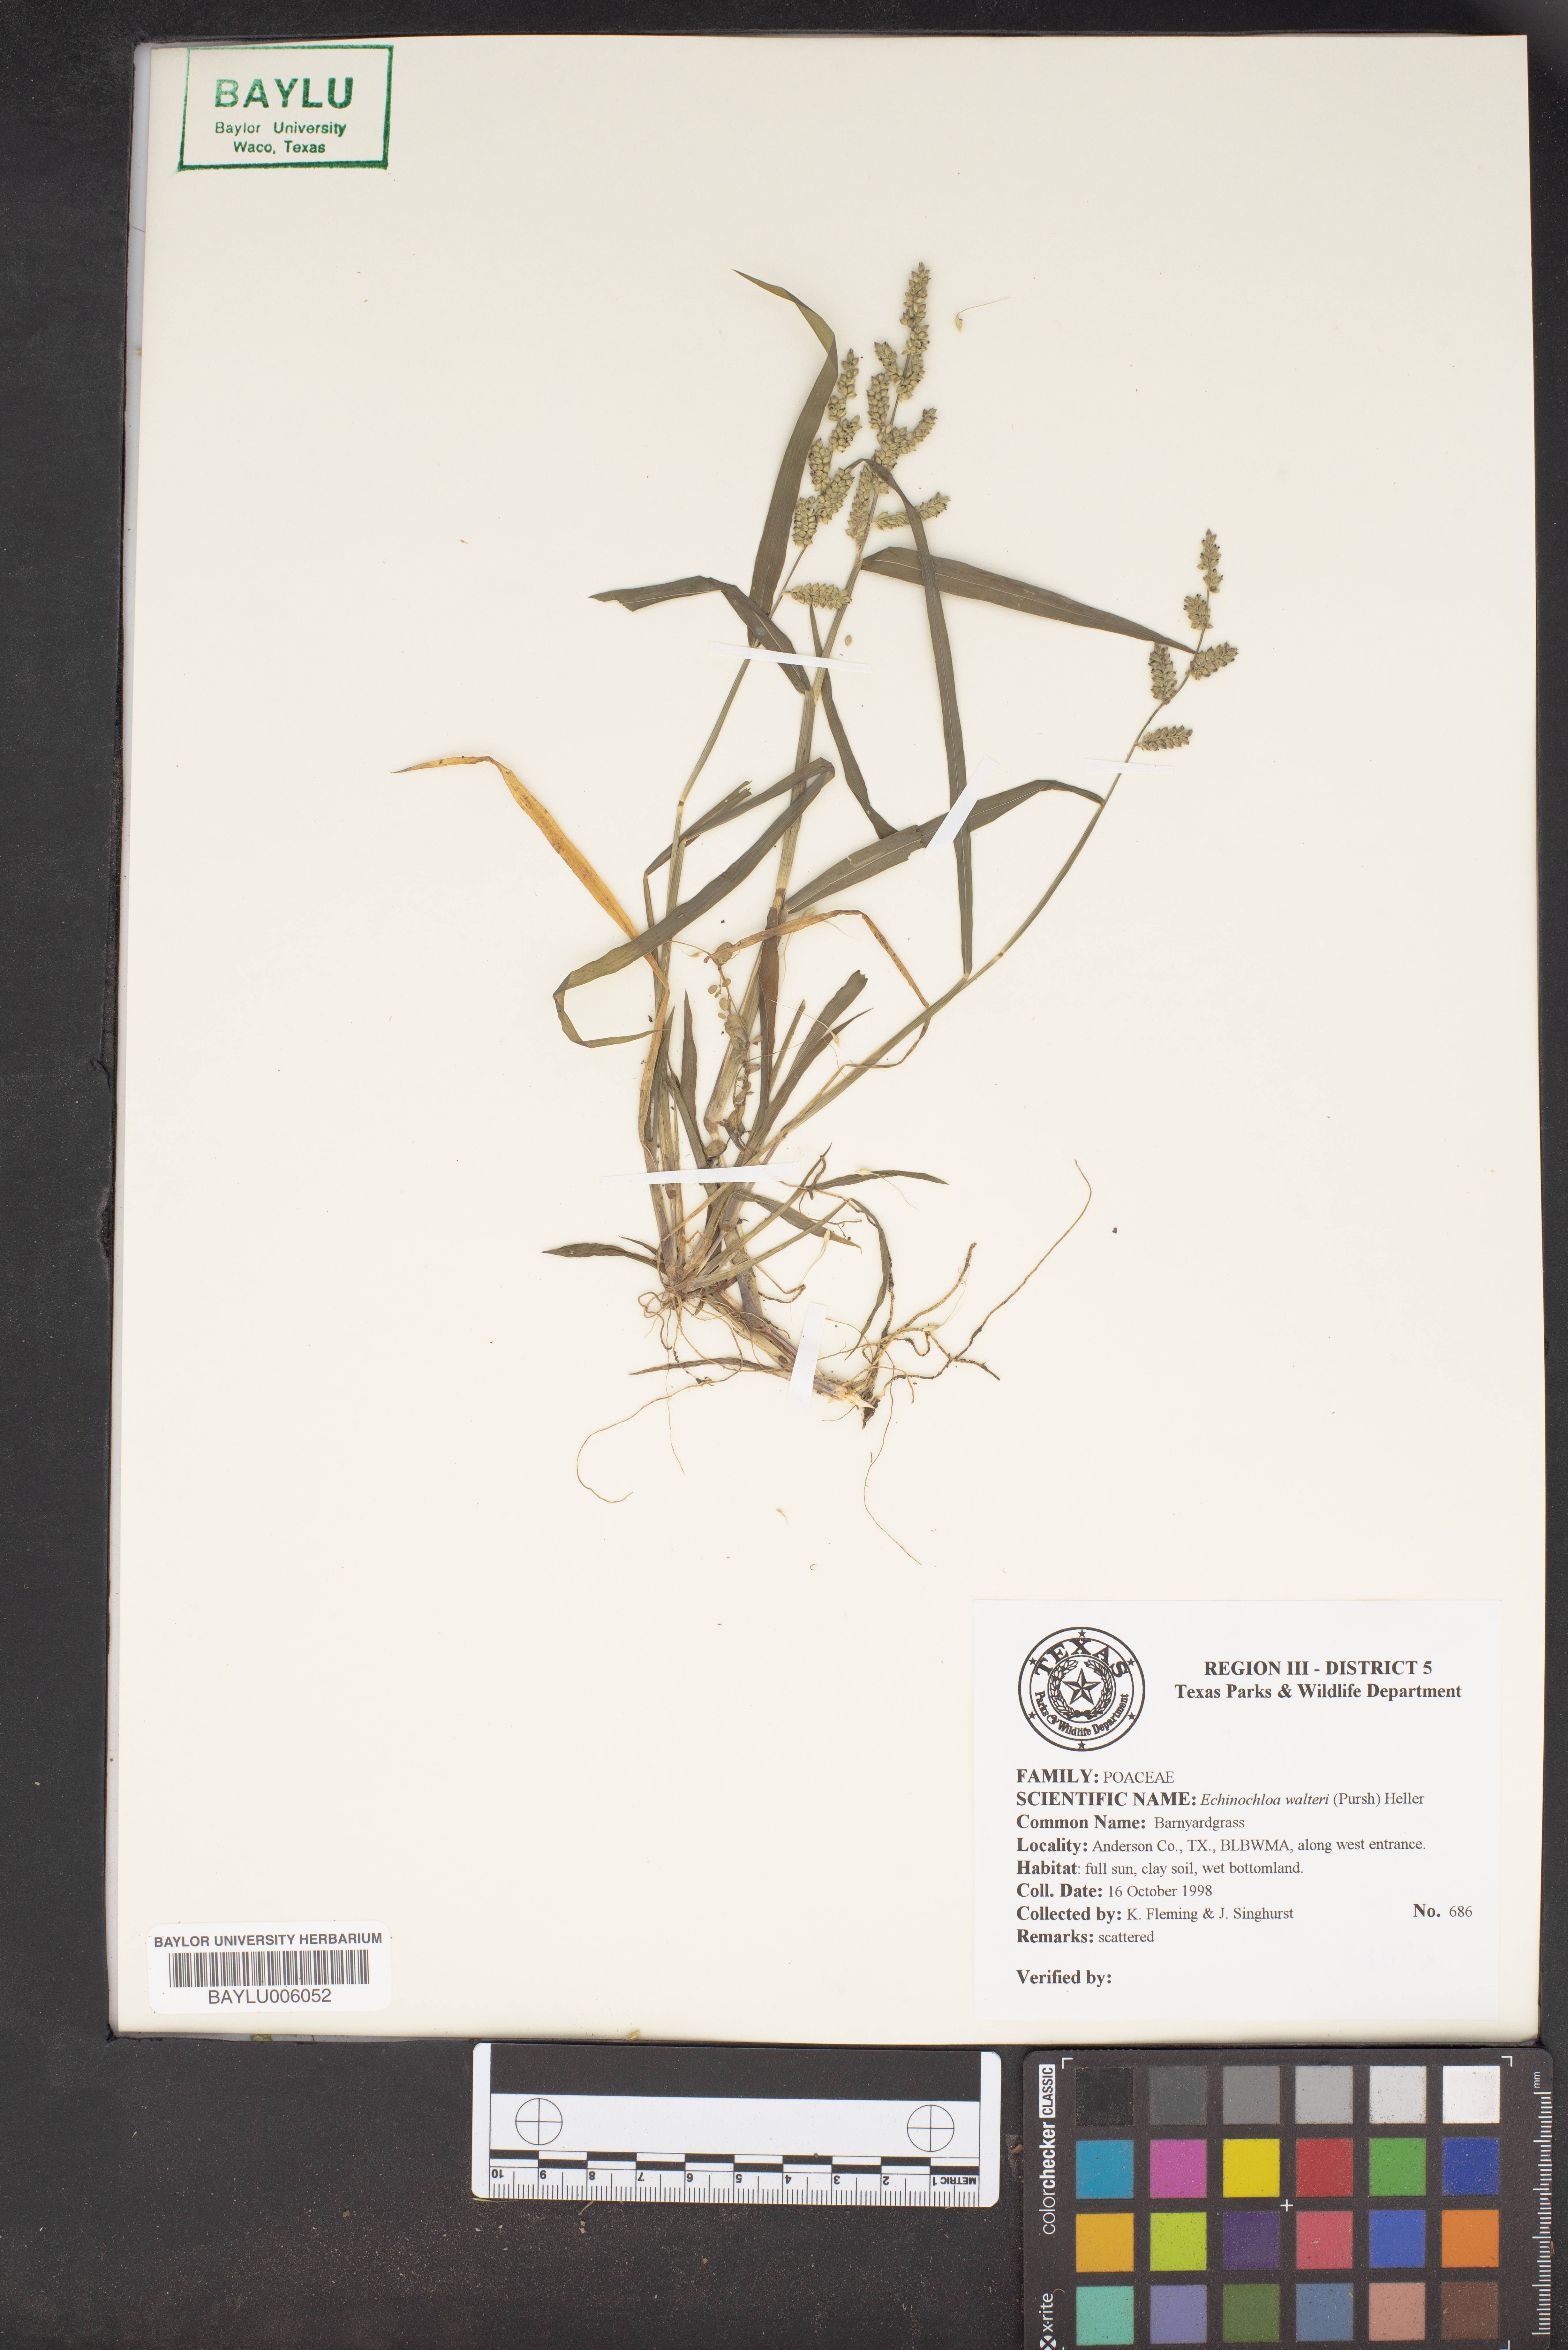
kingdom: Plantae
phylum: Tracheophyta
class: Liliopsida
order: Poales
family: Poaceae
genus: Echinochloa
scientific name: Echinochloa walteri
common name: Coast barnyard grass
